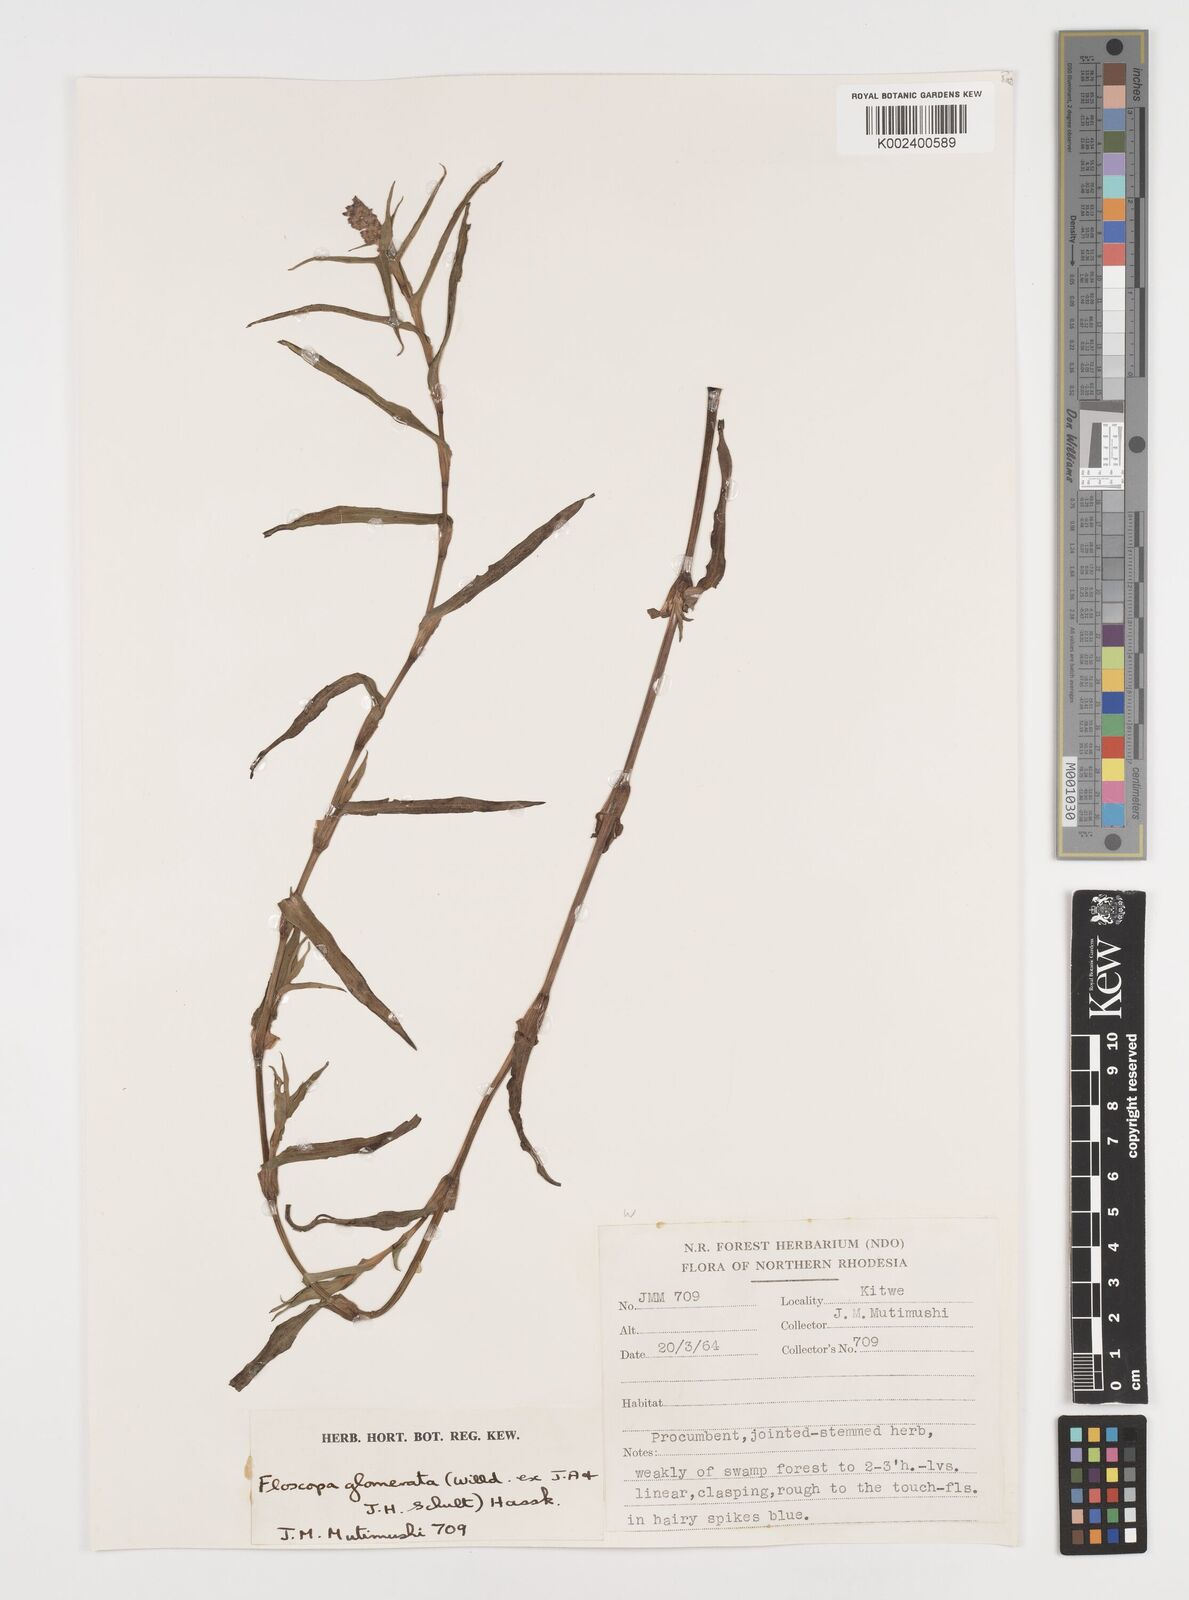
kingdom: Plantae
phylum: Tracheophyta
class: Liliopsida
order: Commelinales
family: Commelinaceae
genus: Floscopa
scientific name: Floscopa glomerata
